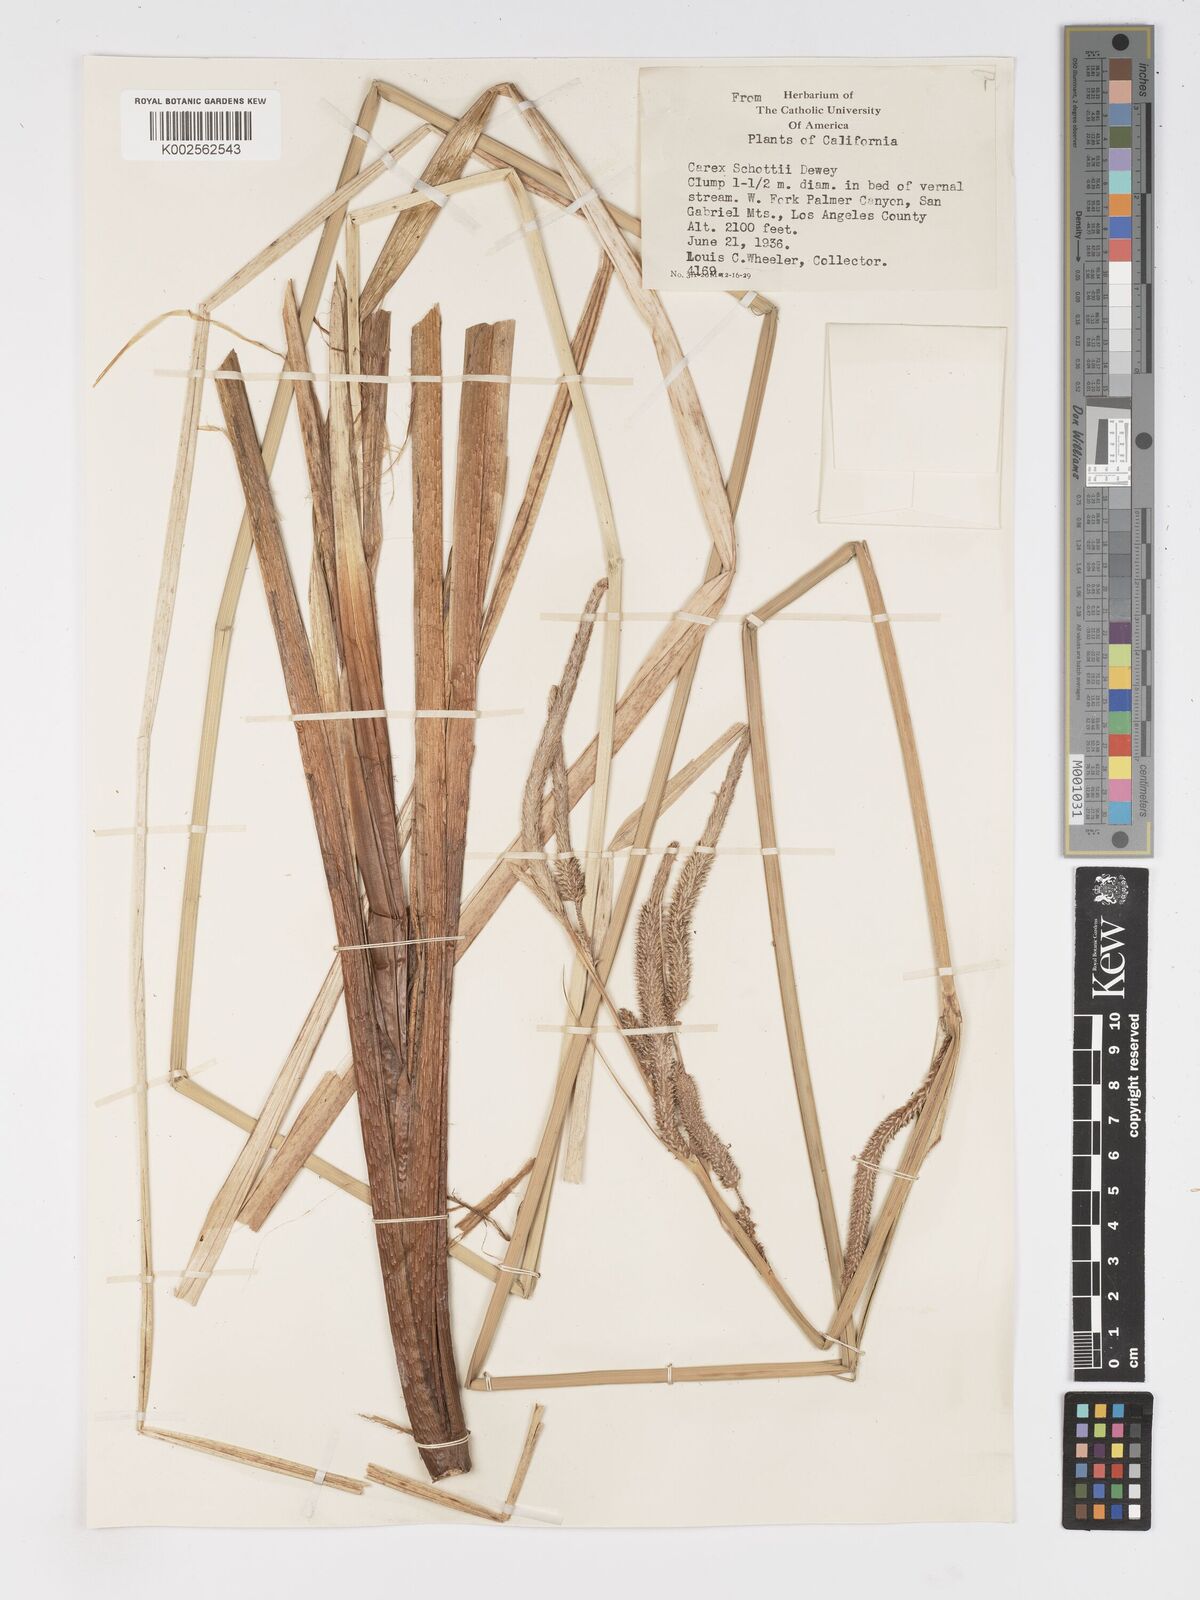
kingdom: Plantae
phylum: Tracheophyta
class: Liliopsida
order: Poales
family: Cyperaceae
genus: Carex
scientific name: Carex schottii
